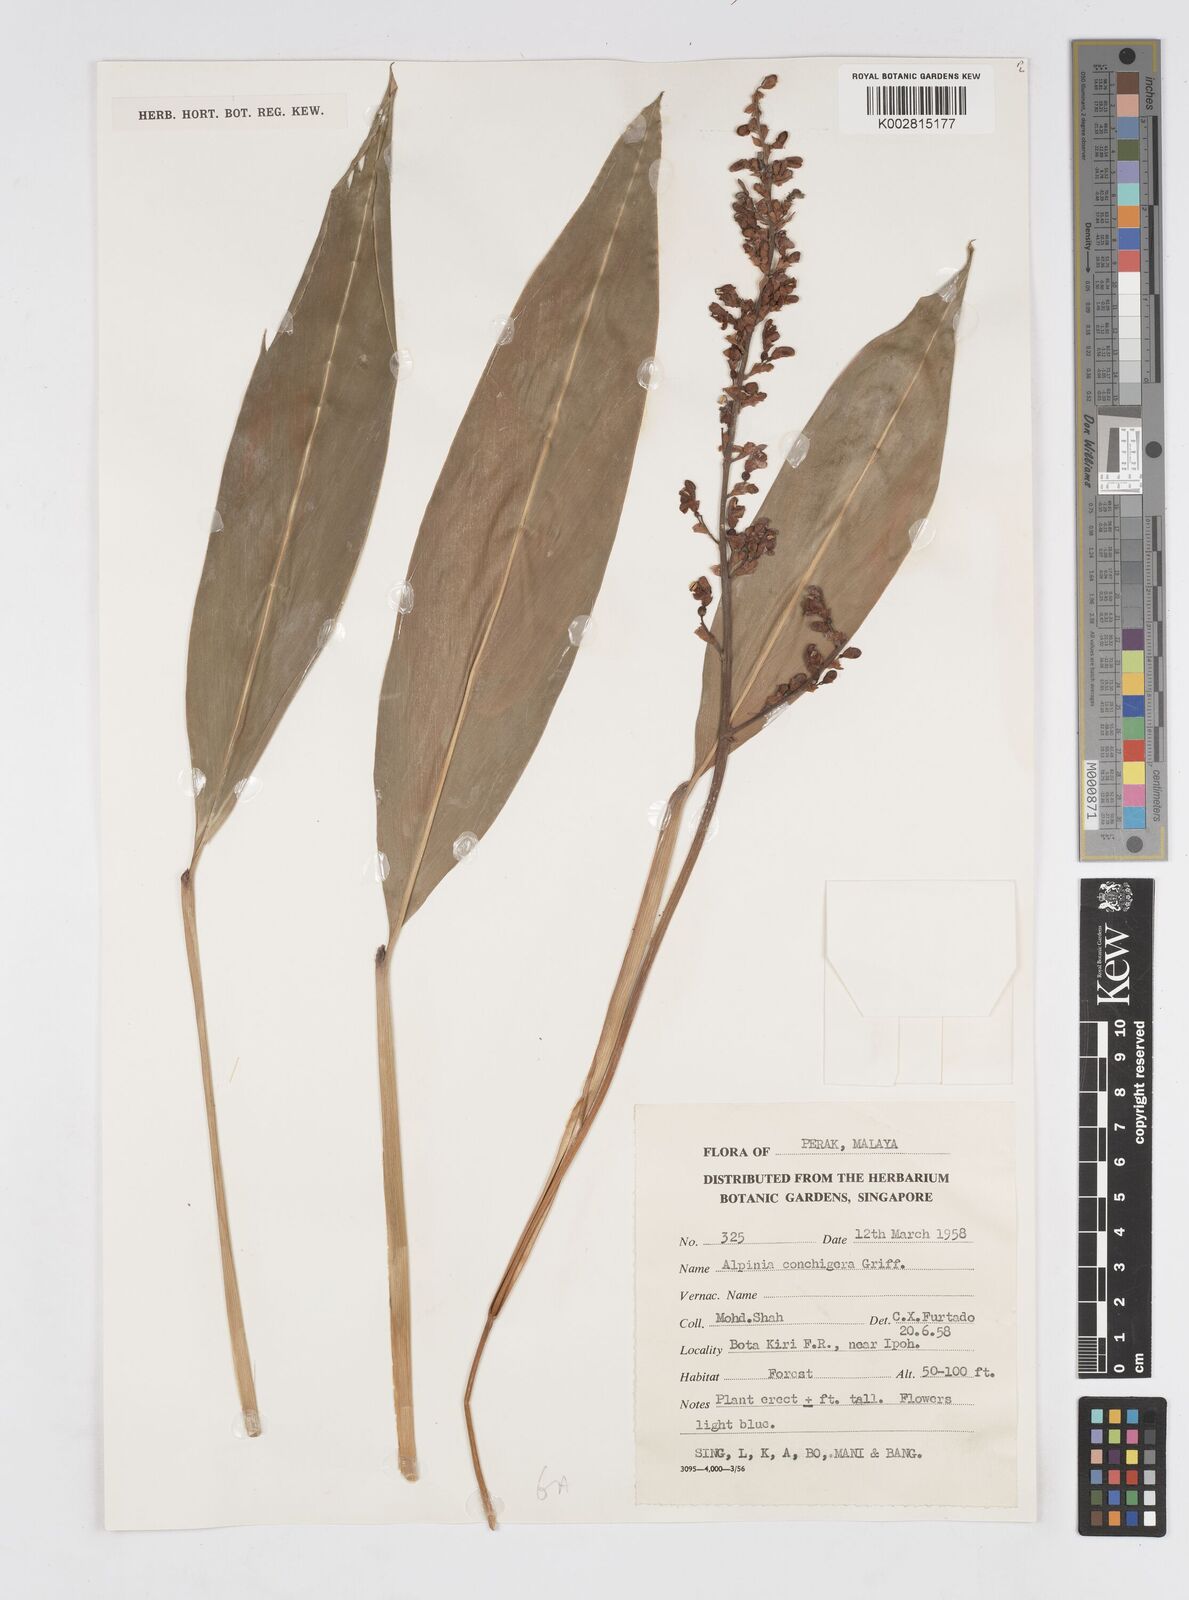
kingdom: Plantae
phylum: Tracheophyta
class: Liliopsida
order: Zingiberales
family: Zingiberaceae
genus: Alpinia
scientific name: Alpinia conchigera
